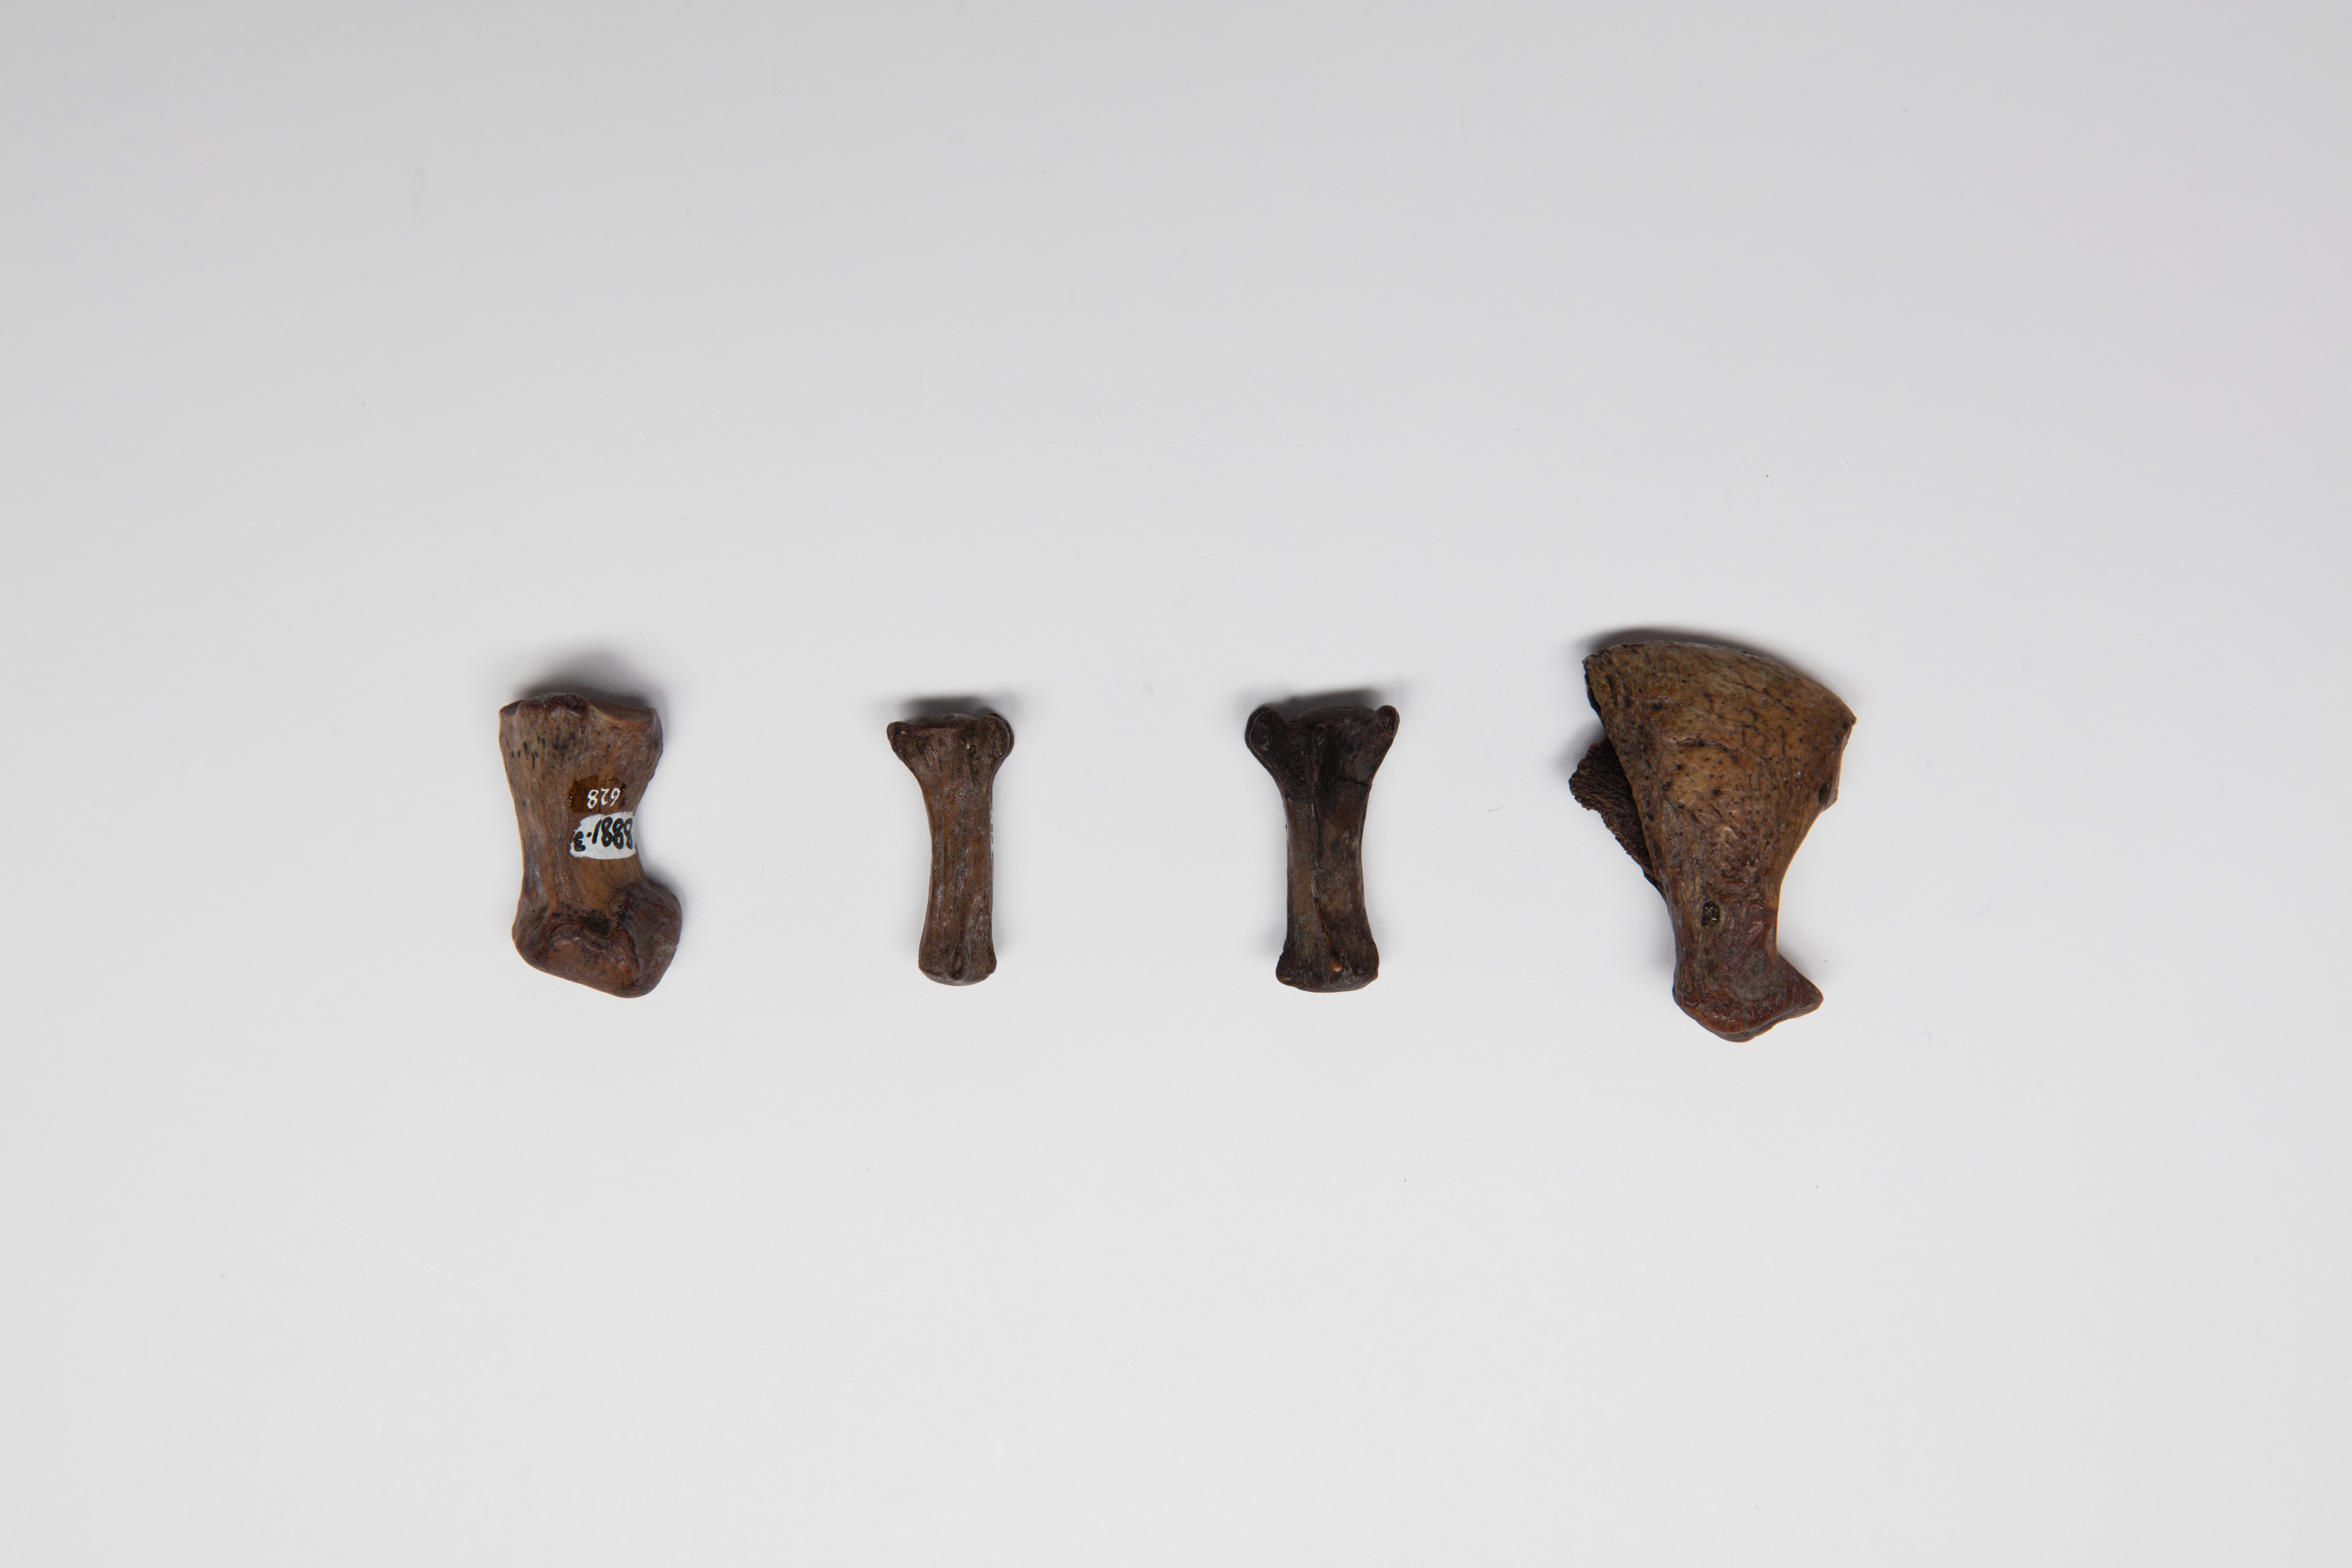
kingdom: Animalia
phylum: Chordata
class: Mammalia
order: Carnivora
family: Felidae
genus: Smilodon
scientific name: Smilodon
